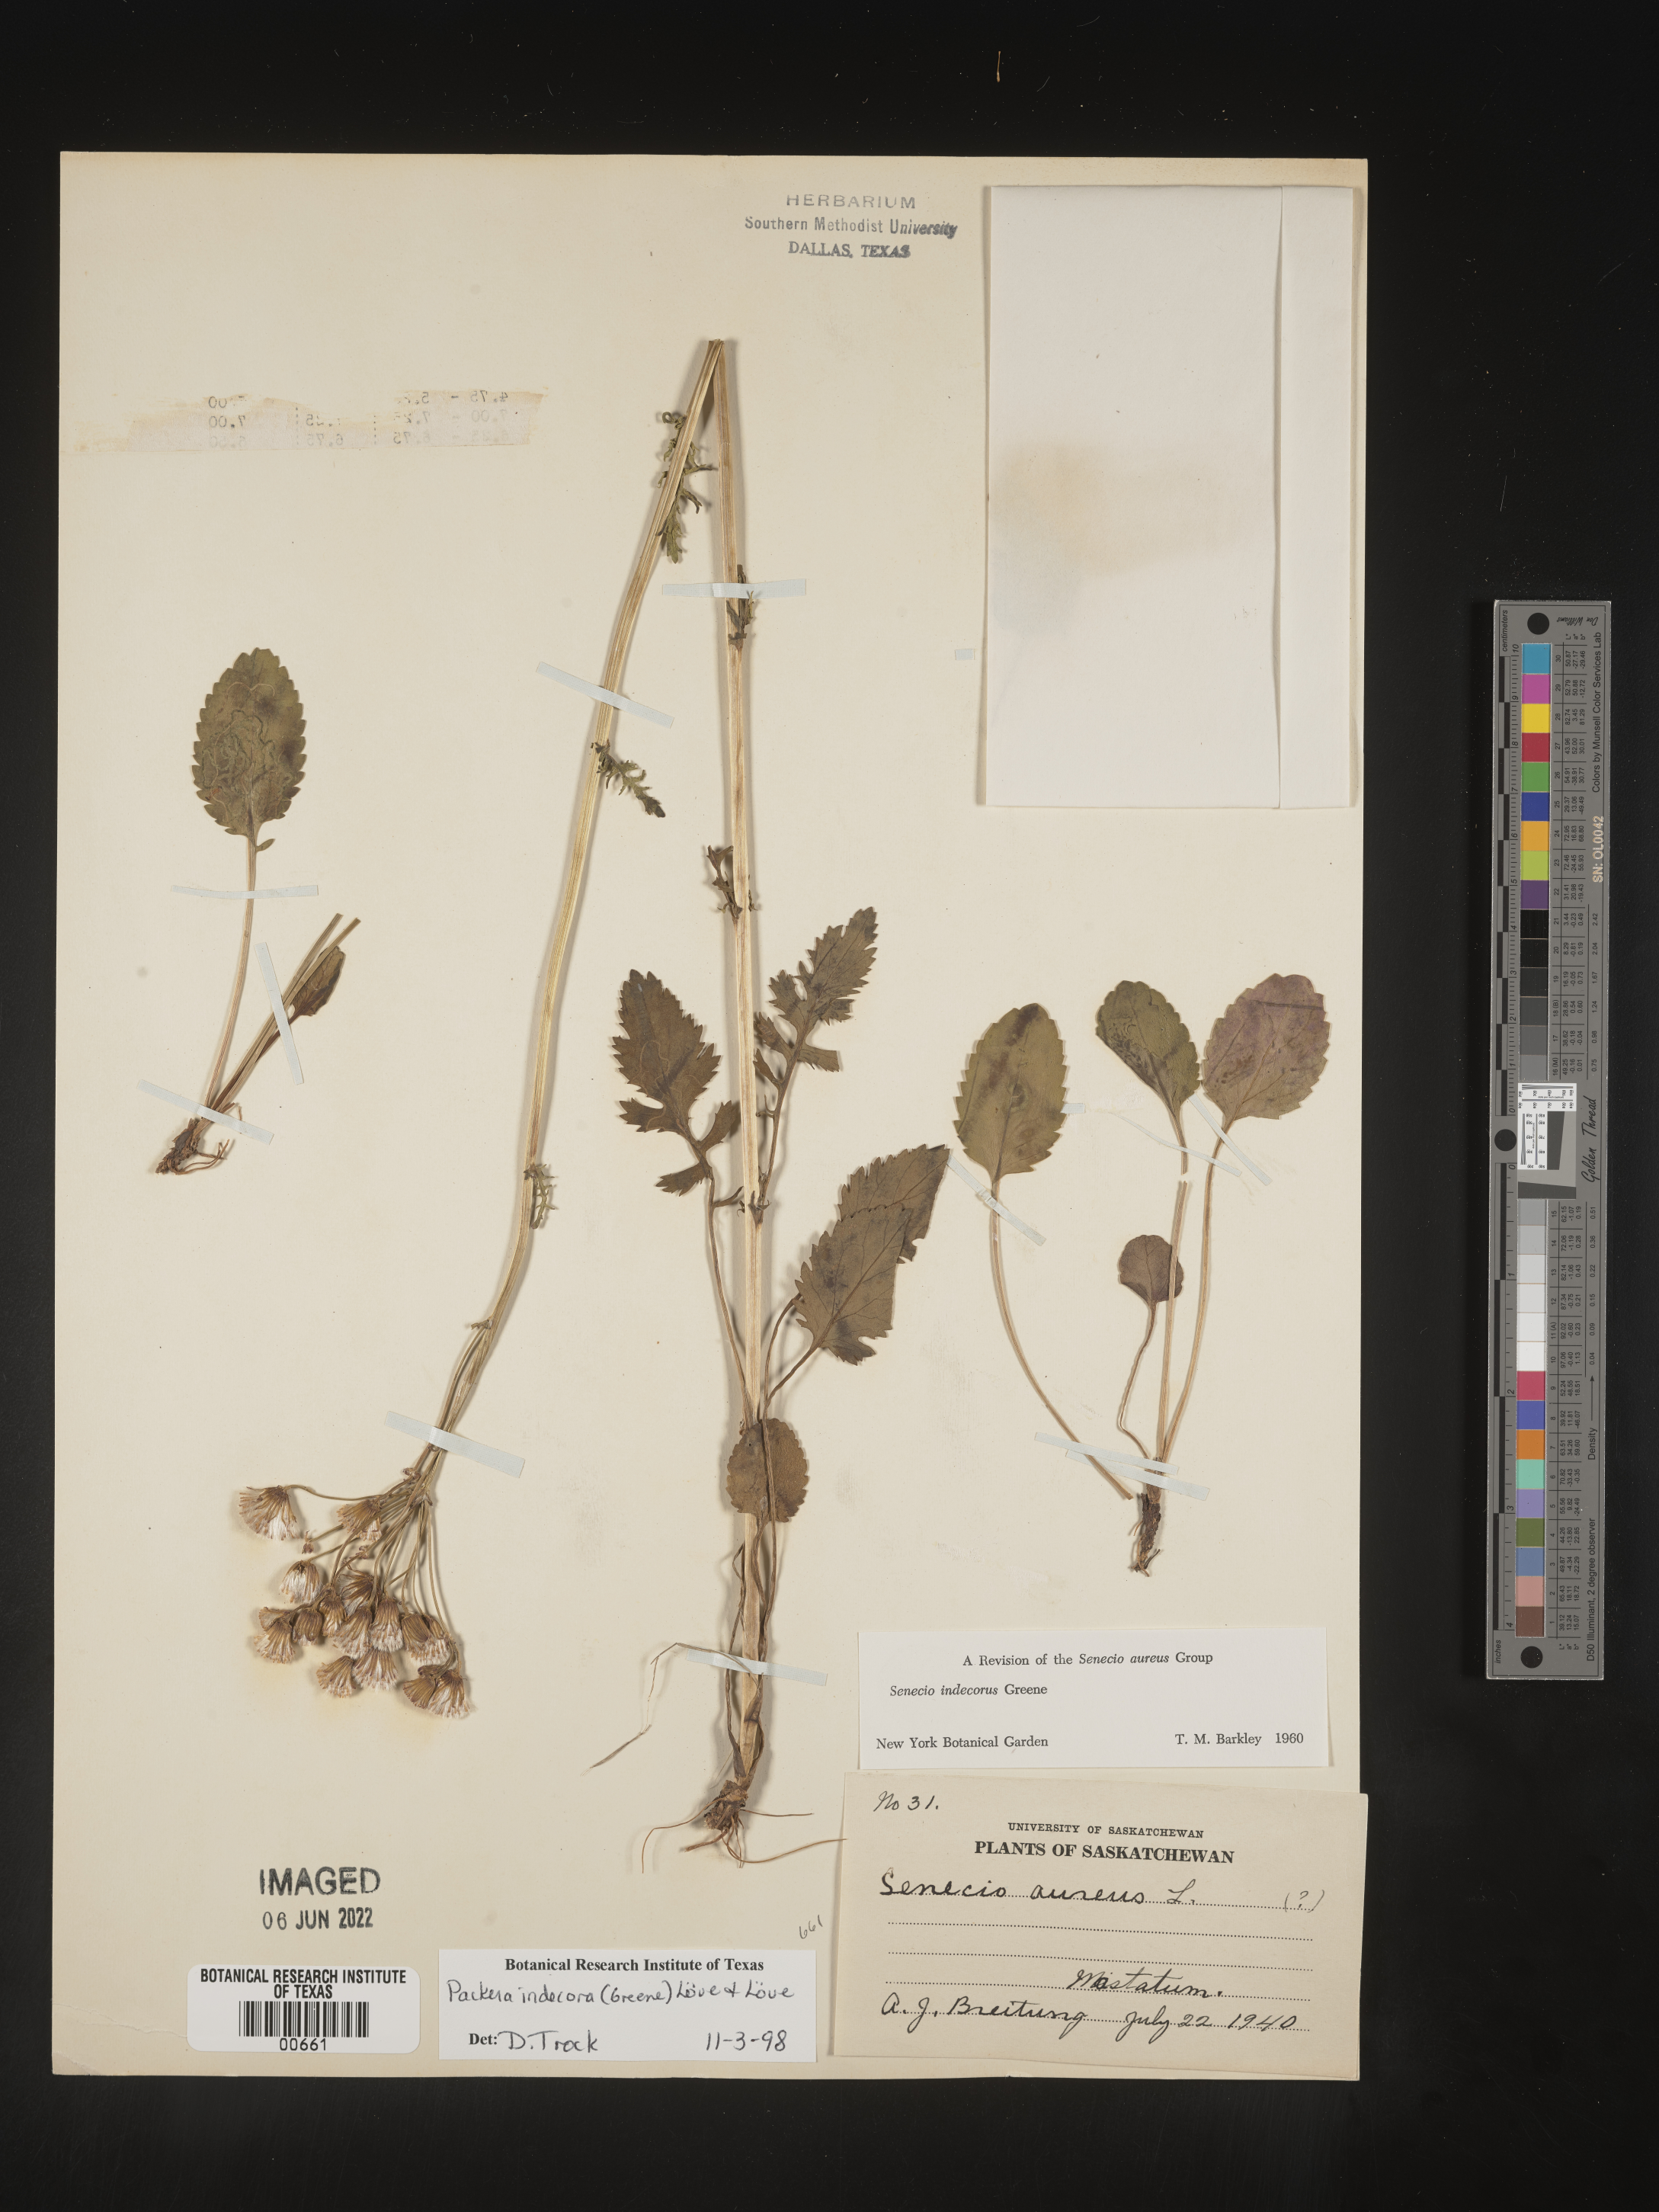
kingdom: Plantae
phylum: Tracheophyta
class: Magnoliopsida
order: Asterales
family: Asteraceae
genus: Packera
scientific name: Packera
